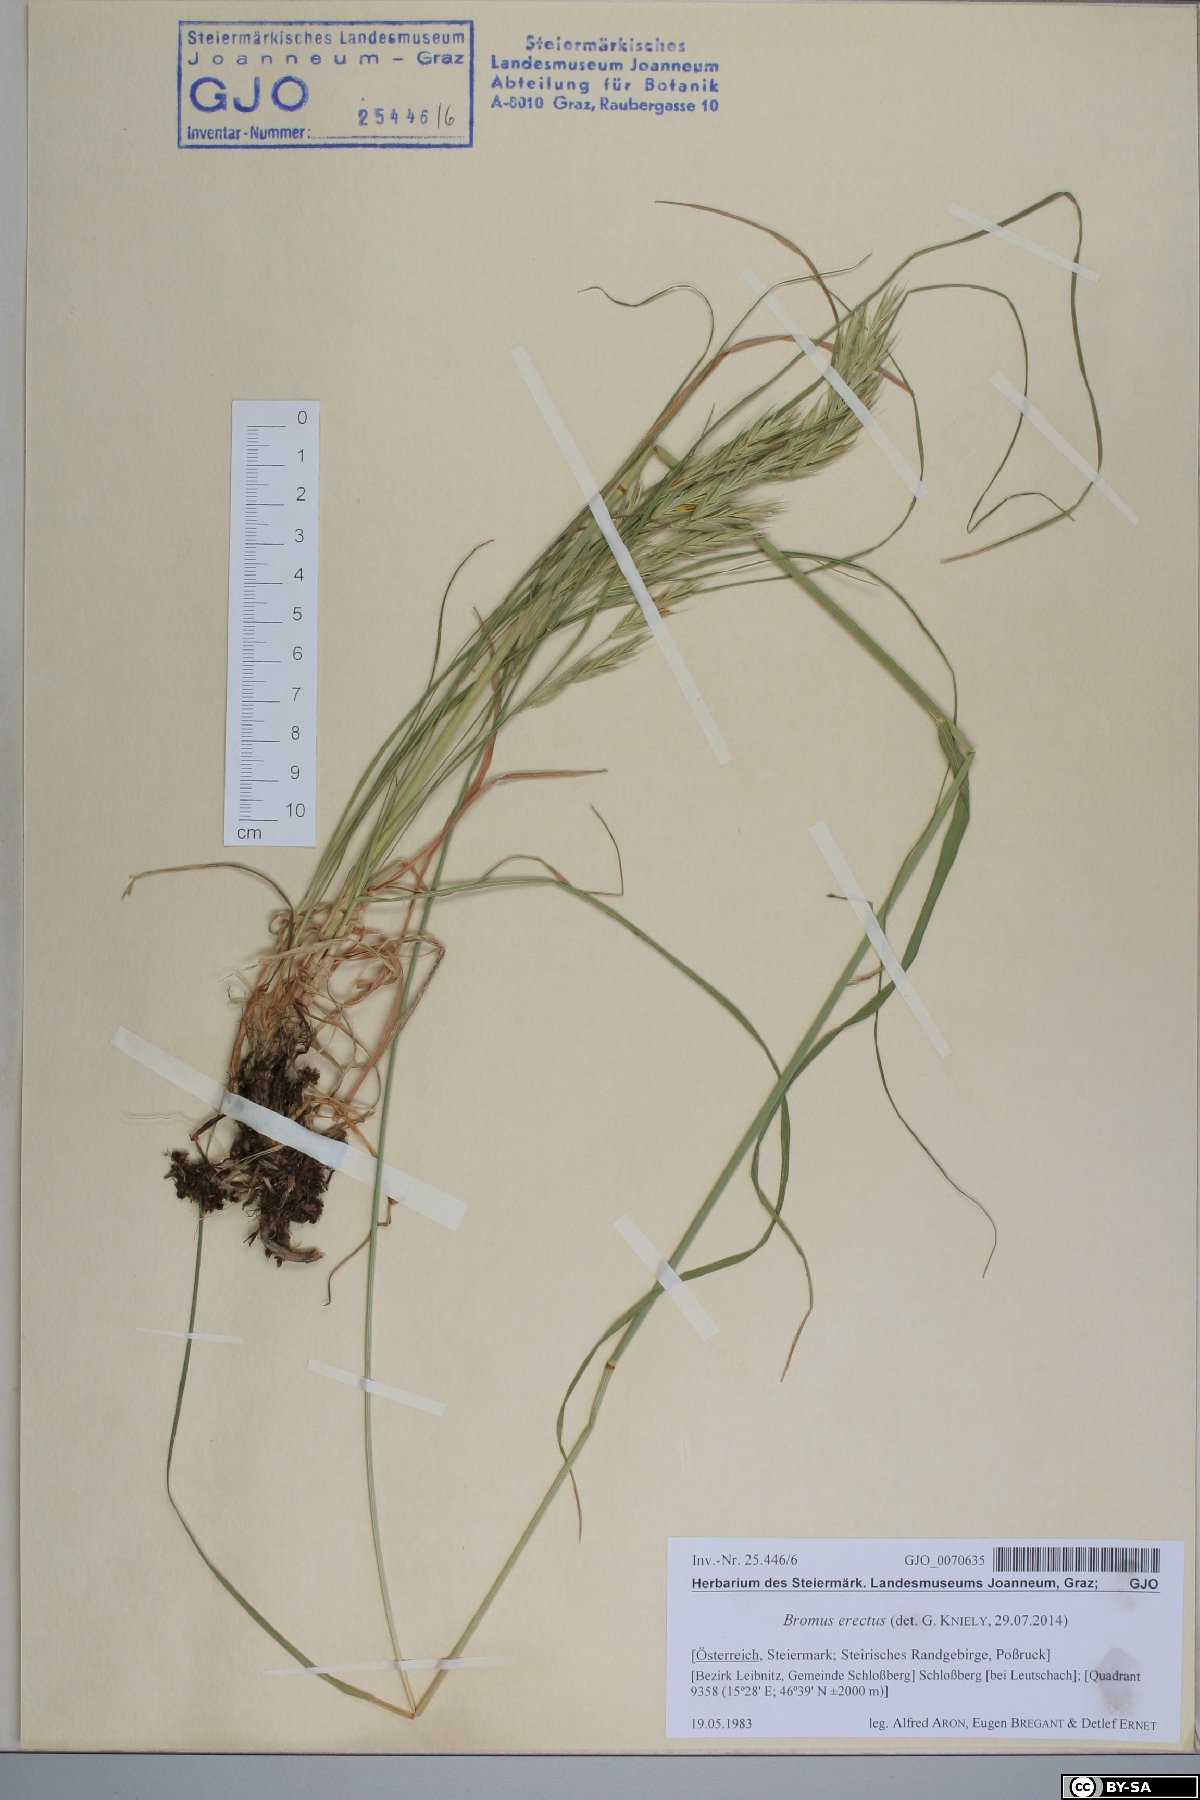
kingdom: Plantae
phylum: Tracheophyta
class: Liliopsida
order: Poales
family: Poaceae
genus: Bromus
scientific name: Bromus erectus
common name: Erect brome
